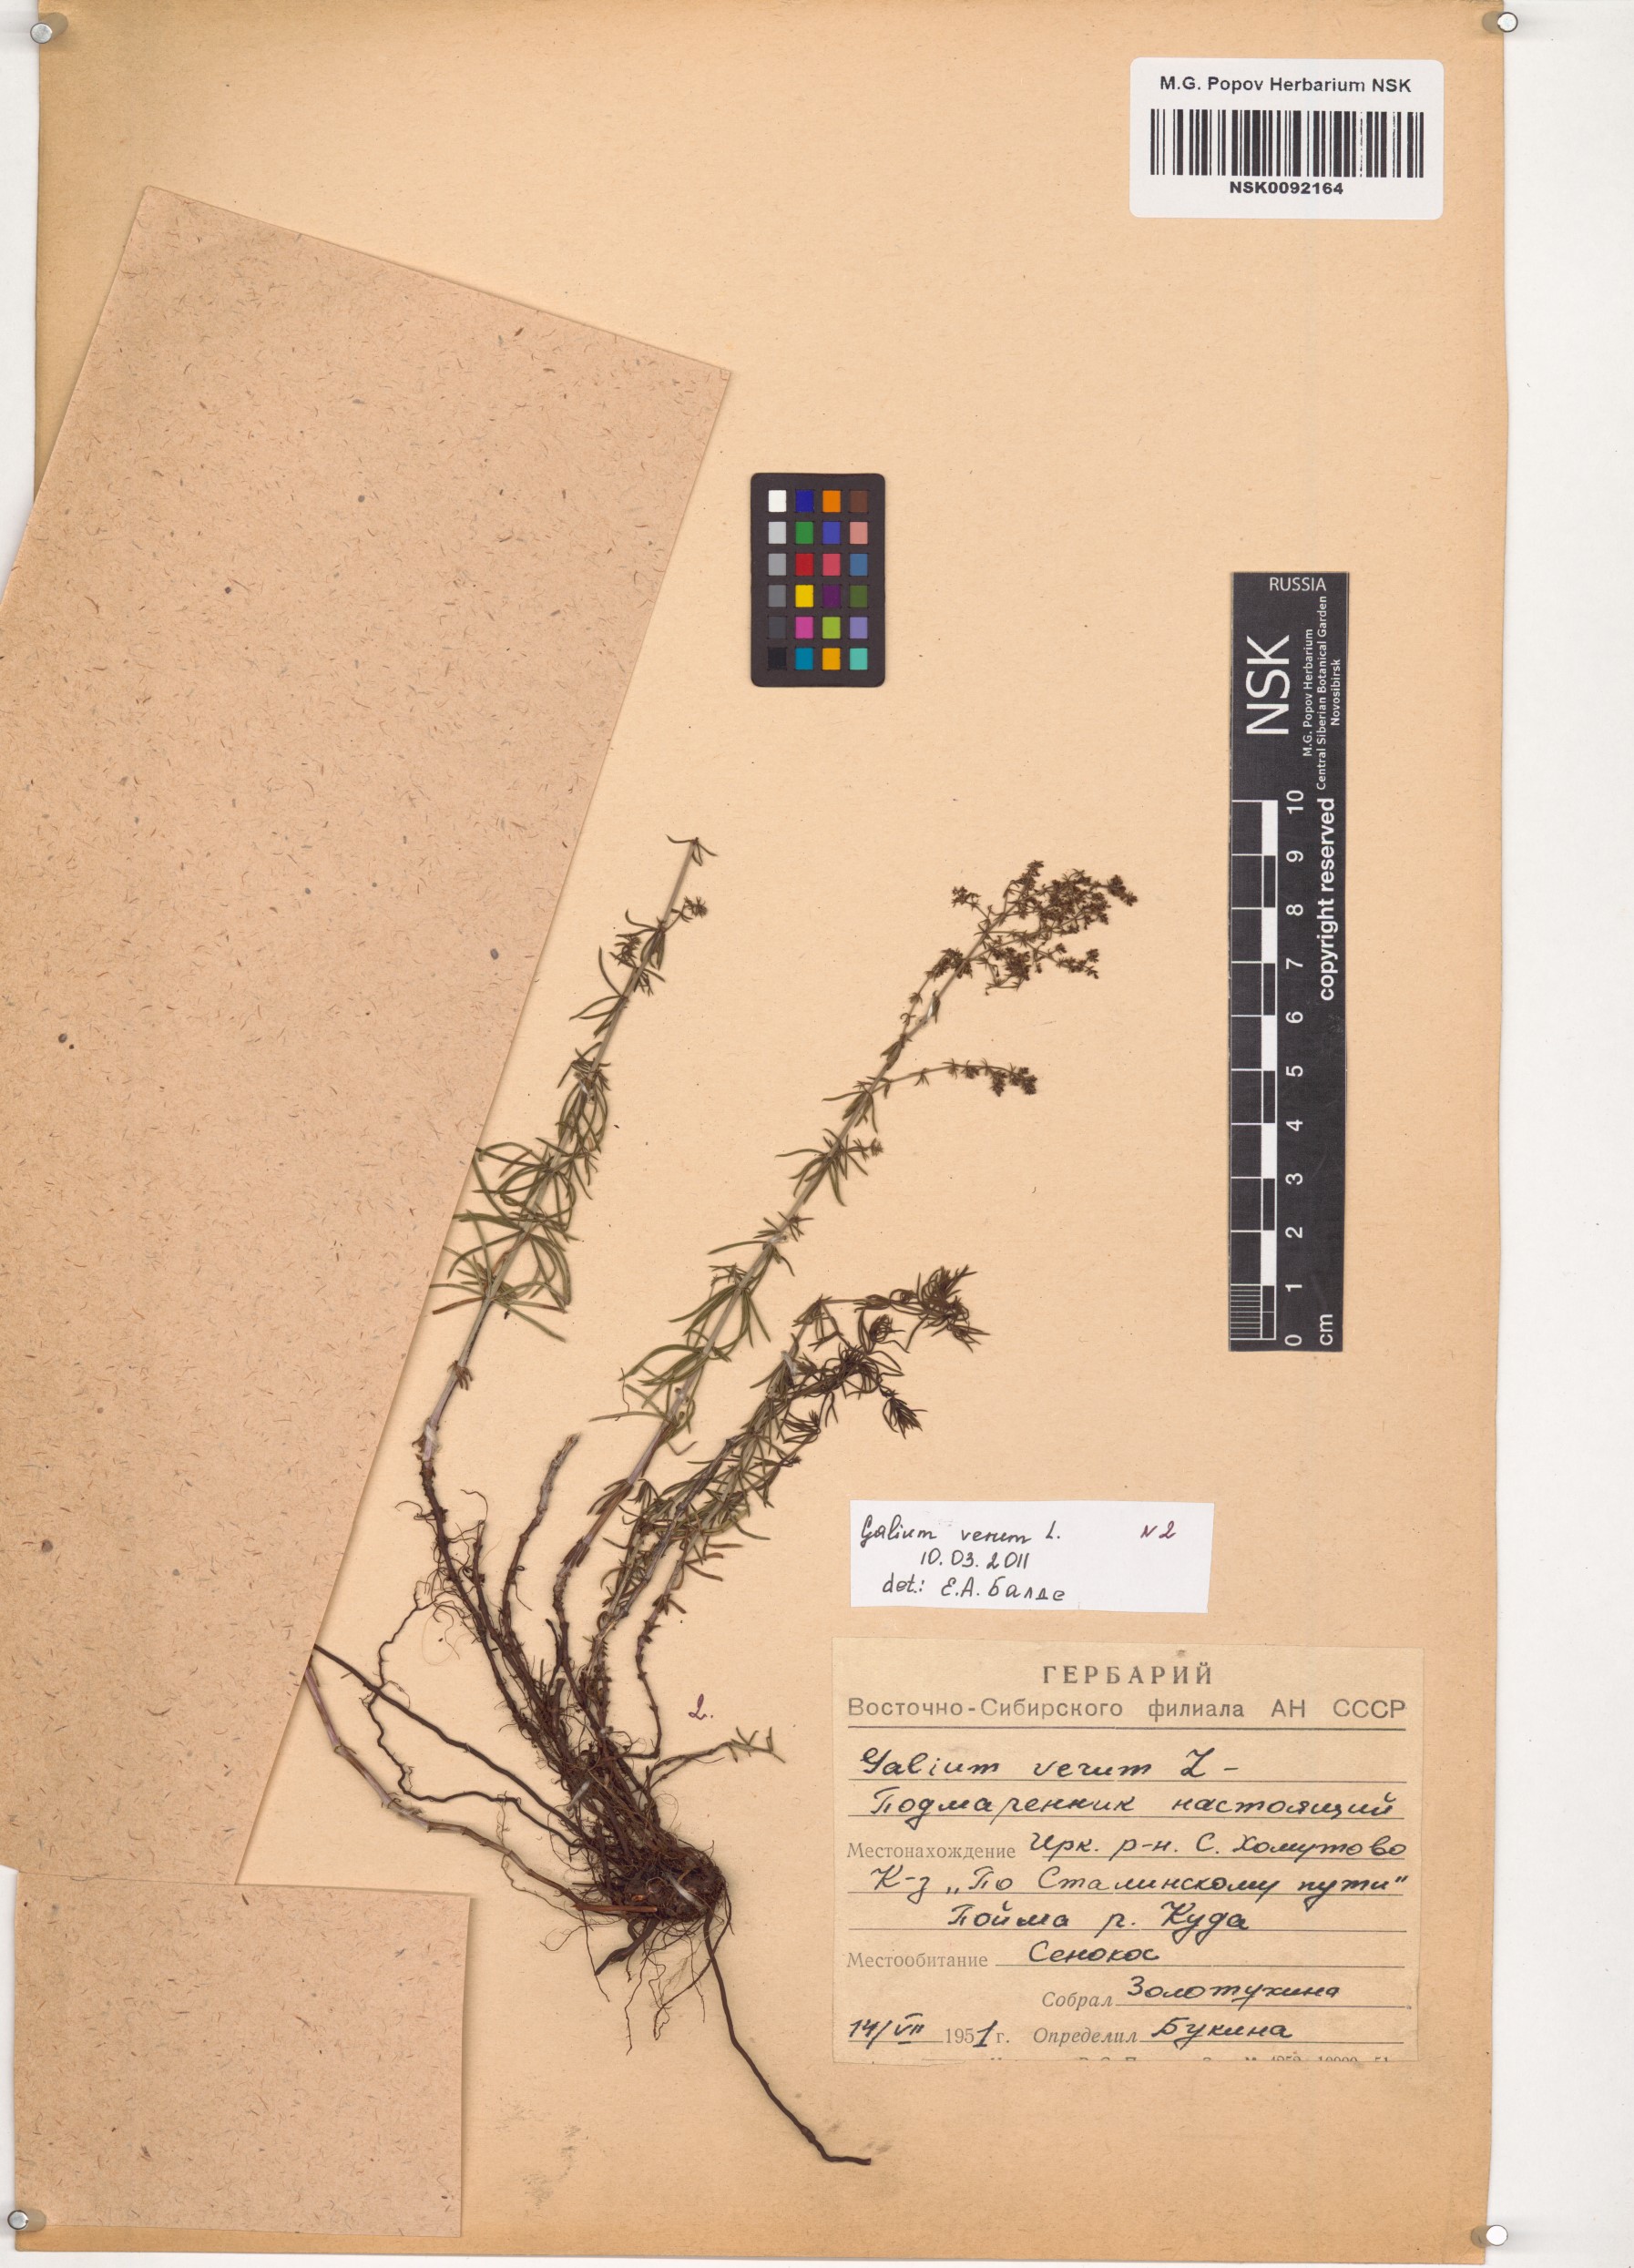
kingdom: Plantae
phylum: Tracheophyta
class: Magnoliopsida
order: Gentianales
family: Rubiaceae
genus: Galium
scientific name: Galium verum
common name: Lady's bedstraw
